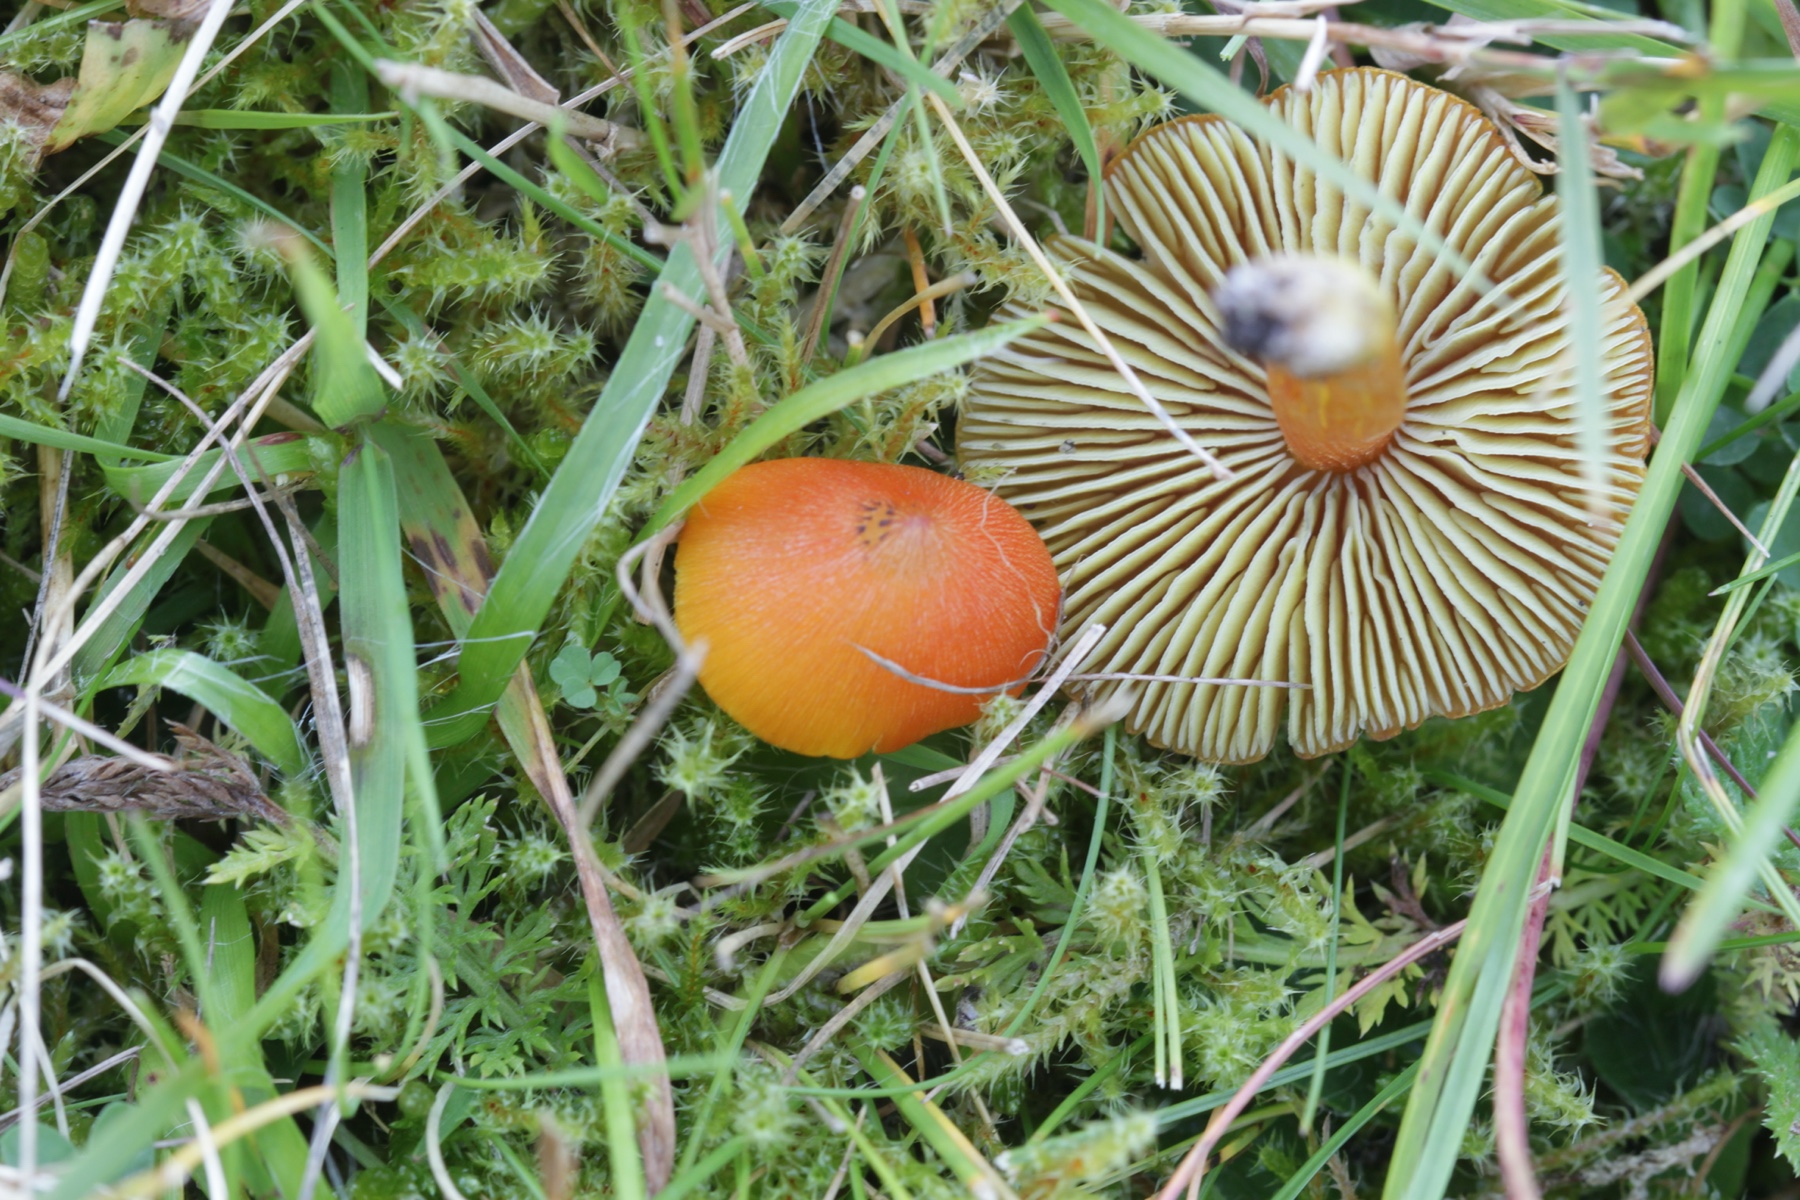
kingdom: Fungi
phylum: Basidiomycota
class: Agaricomycetes
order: Agaricales
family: Hygrophoraceae
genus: Hygrocybe
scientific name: Hygrocybe conica
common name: kegle-vokshat
